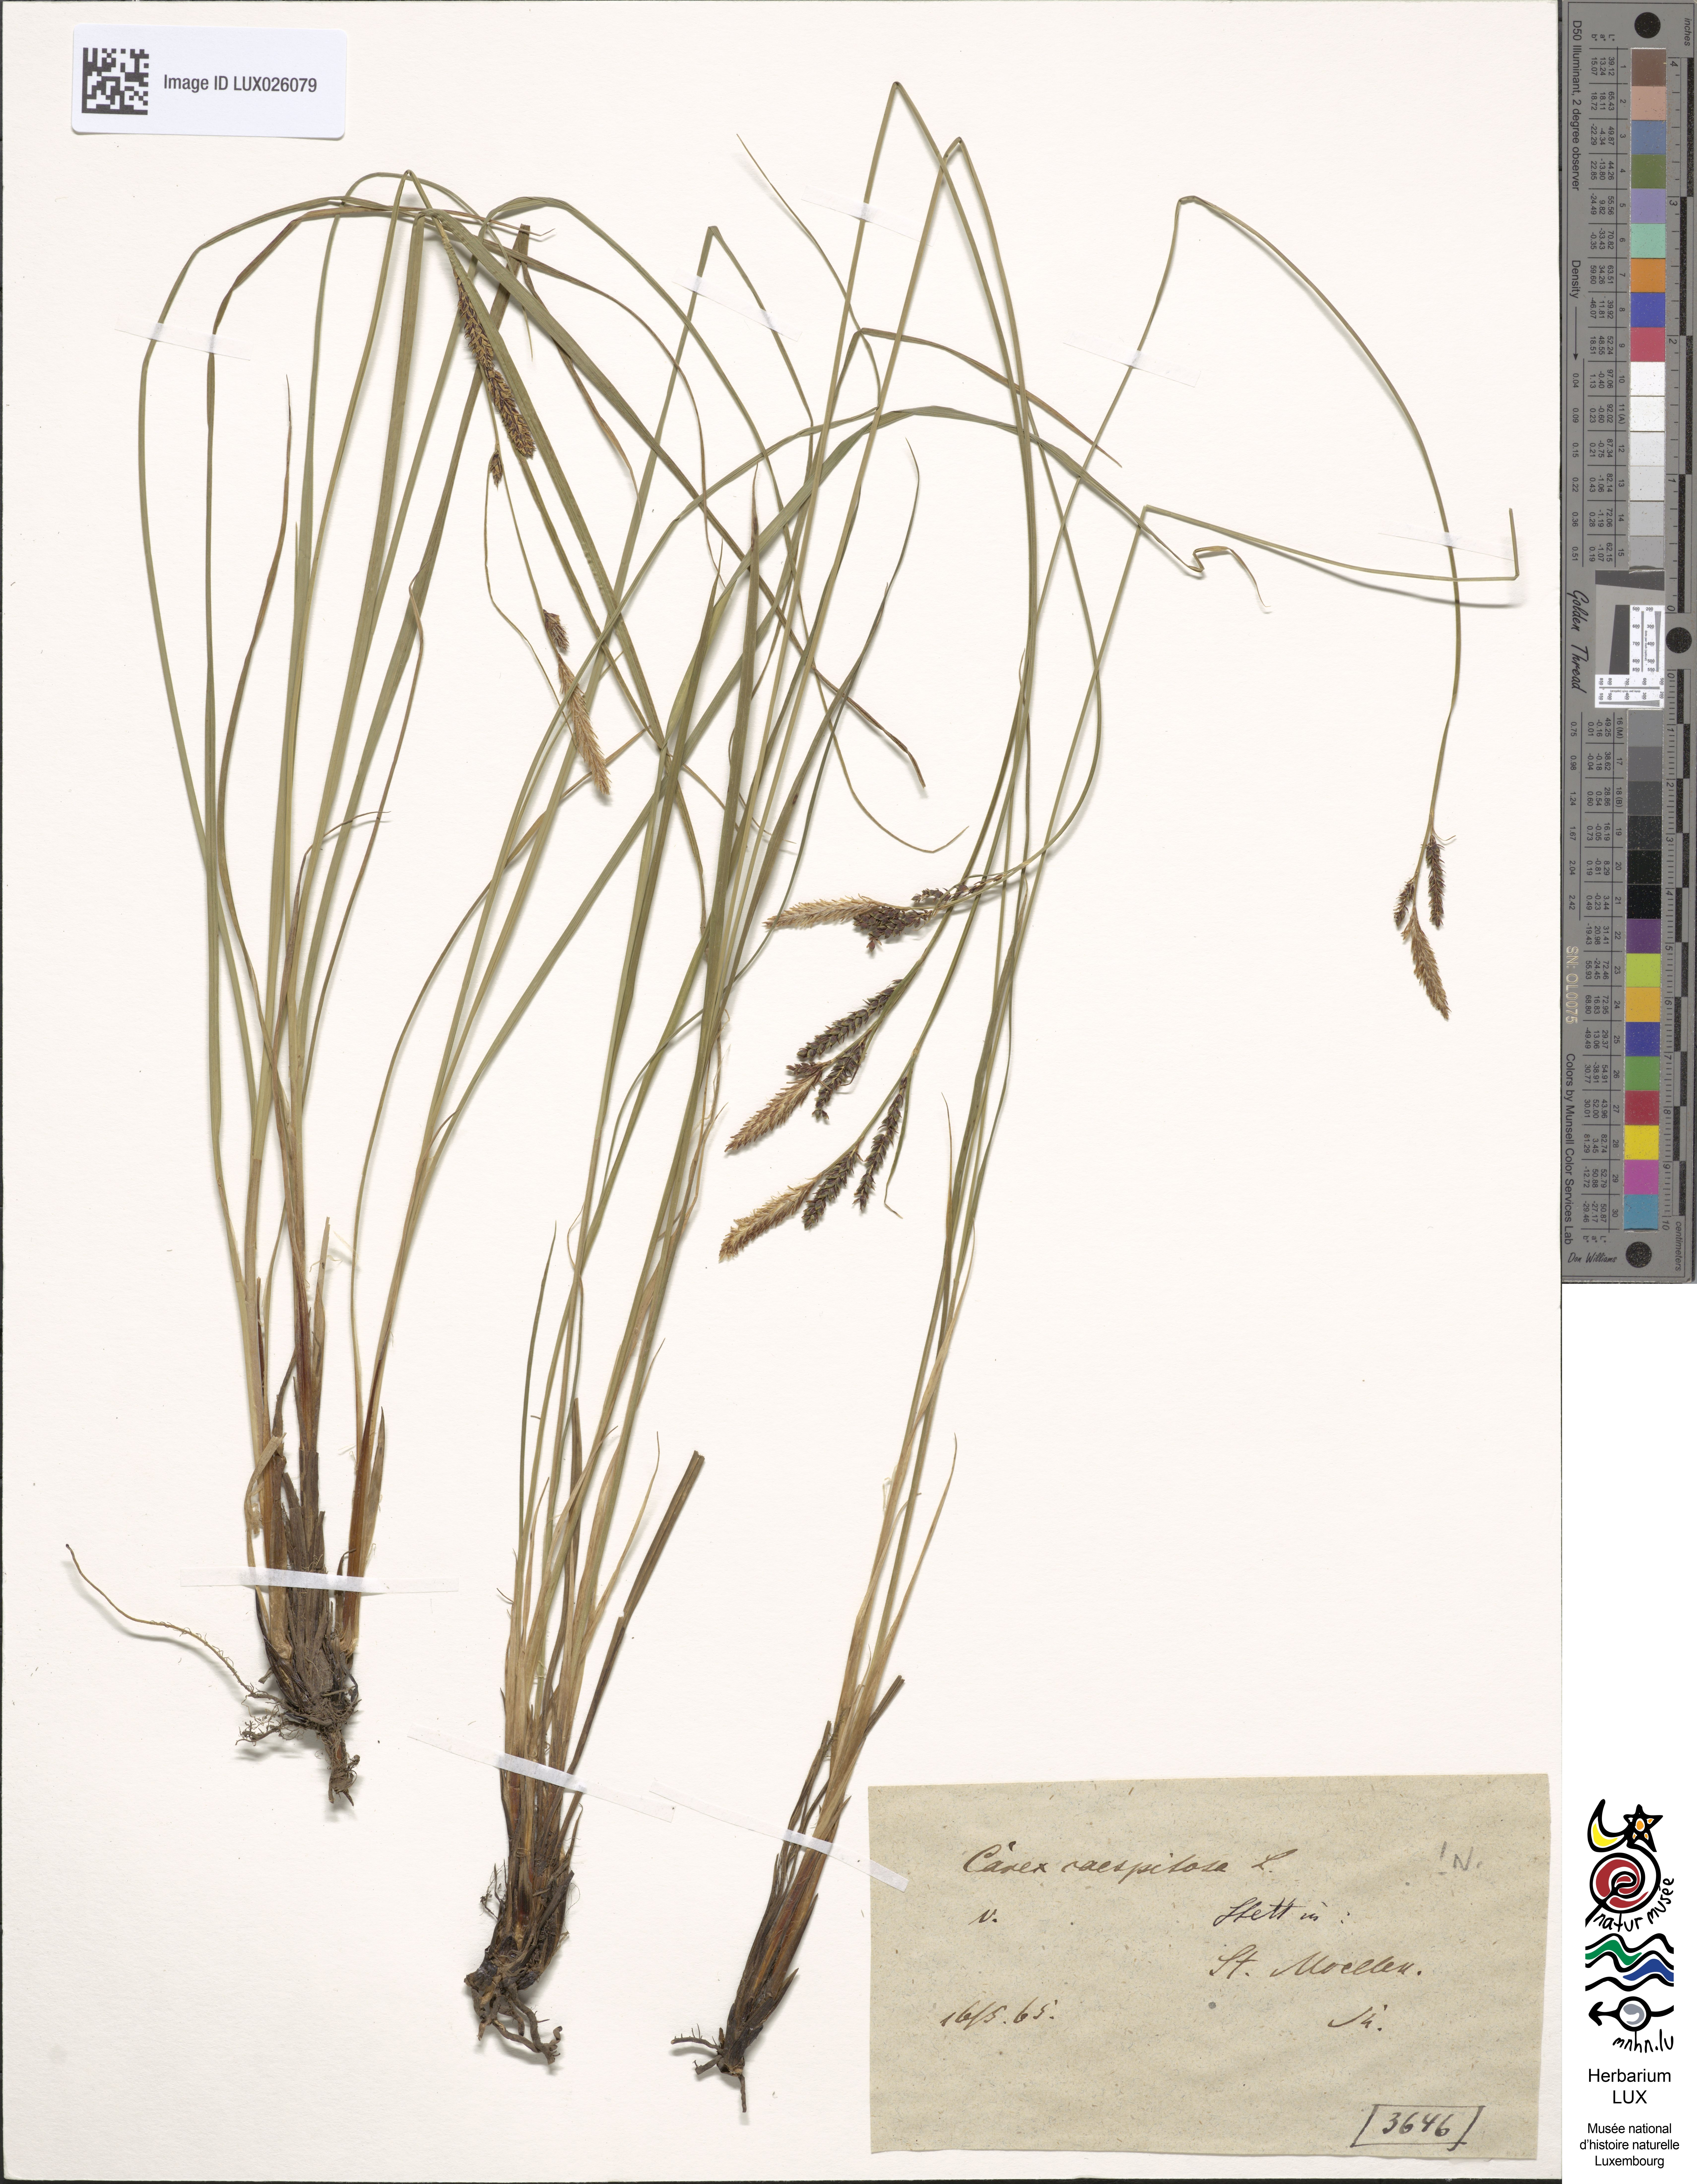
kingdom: Plantae
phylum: Tracheophyta
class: Liliopsida
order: Poales
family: Cyperaceae
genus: Carex
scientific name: Carex cespitosa
